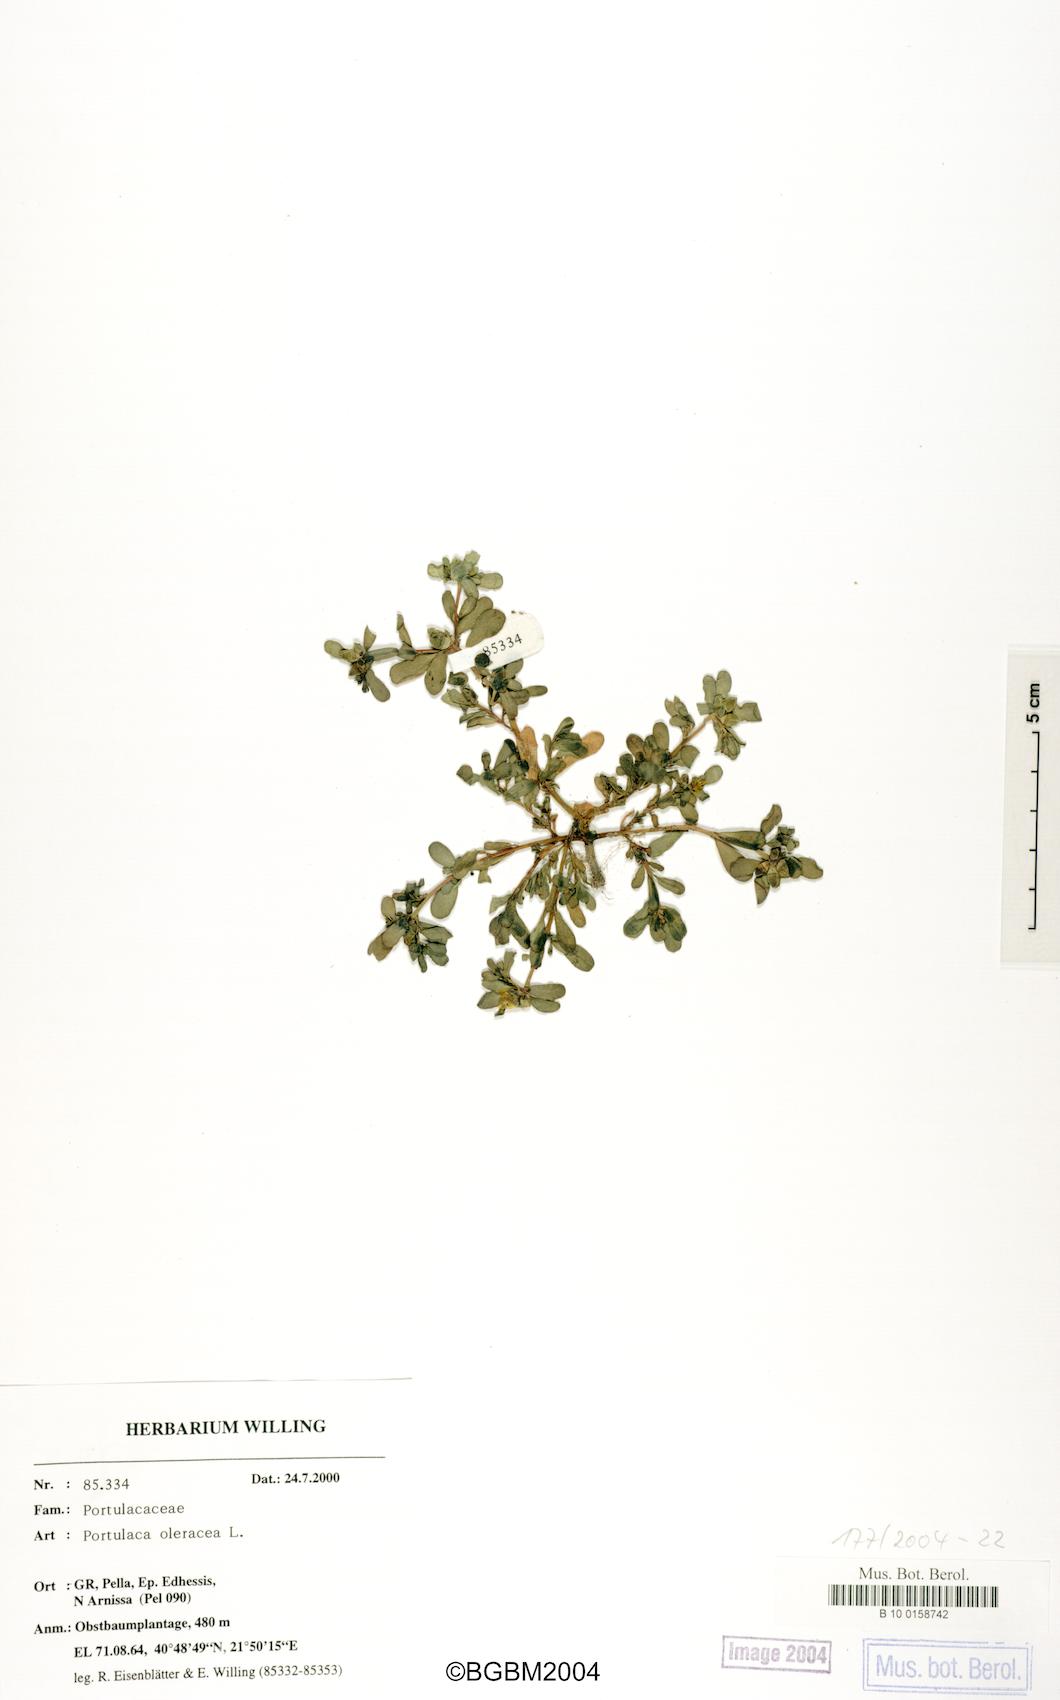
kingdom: Plantae
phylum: Tracheophyta
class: Magnoliopsida
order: Caryophyllales
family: Portulacaceae
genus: Portulaca
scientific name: Portulaca oleracea
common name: Common purslane
